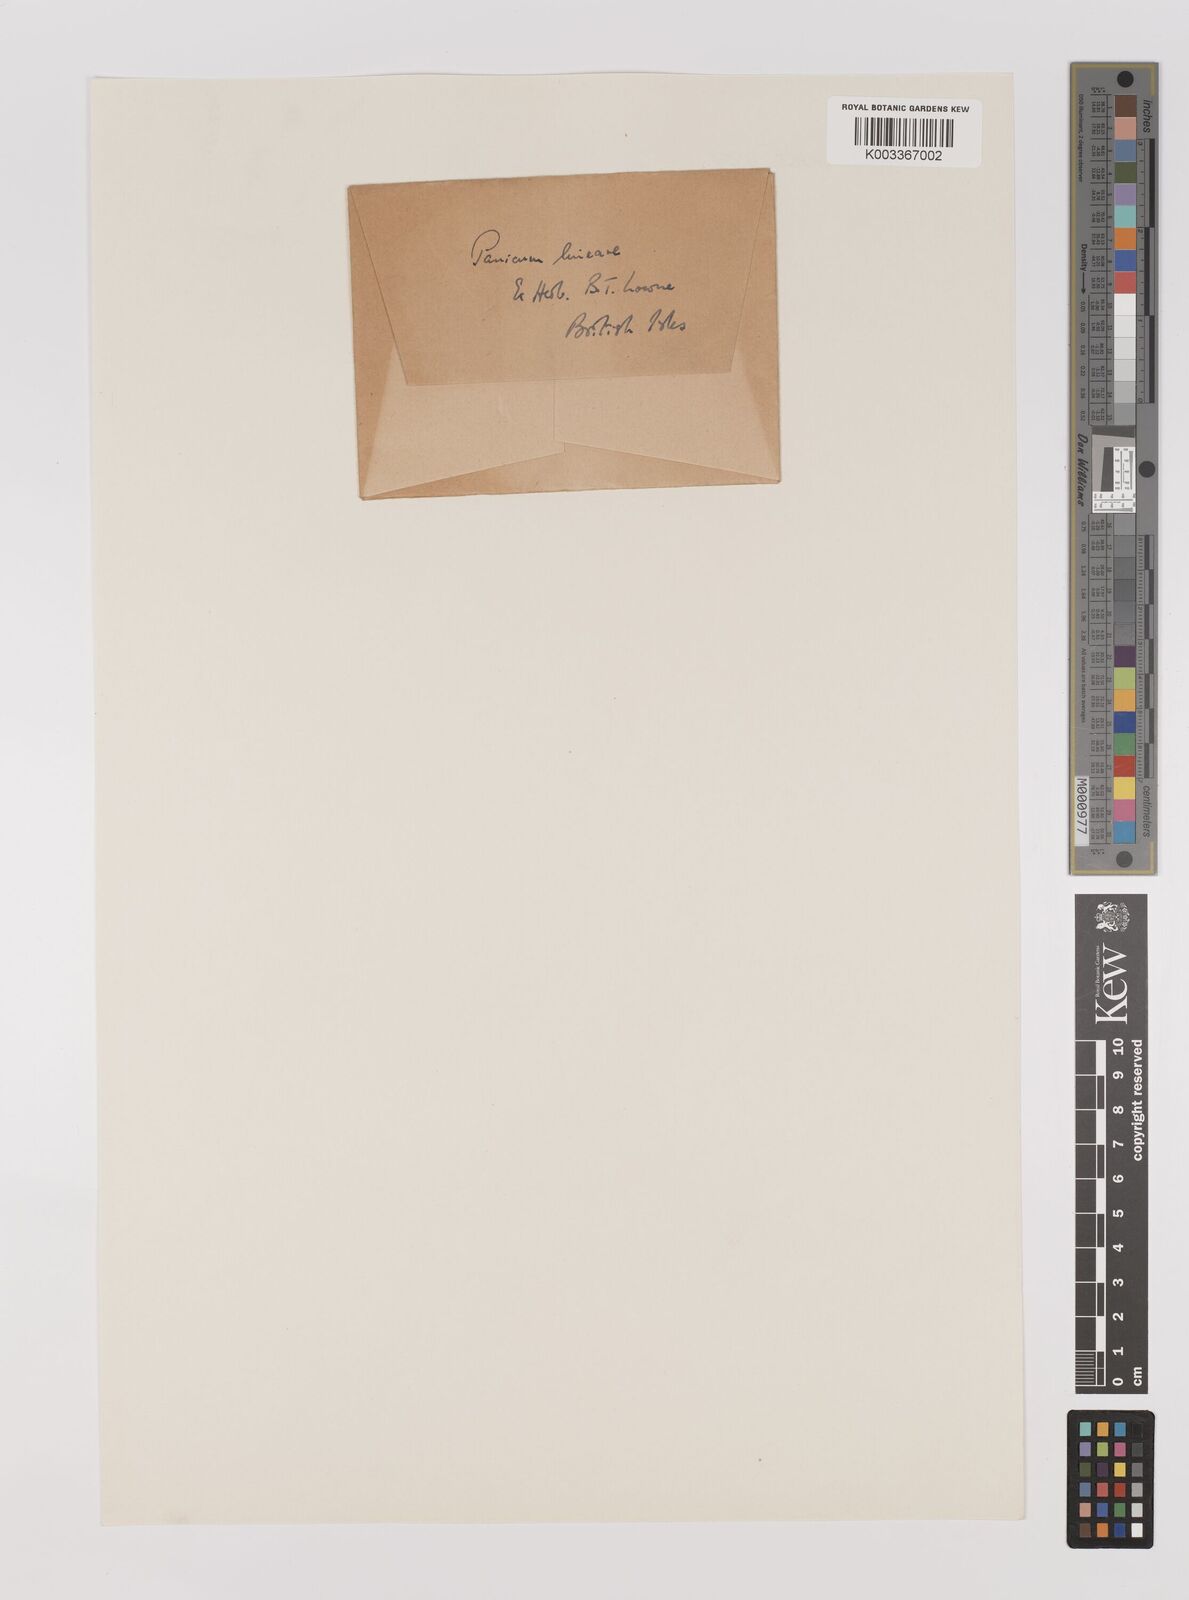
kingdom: Plantae
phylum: Tracheophyta
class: Liliopsida
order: Poales
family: Poaceae
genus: Panicum
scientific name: Panicum
